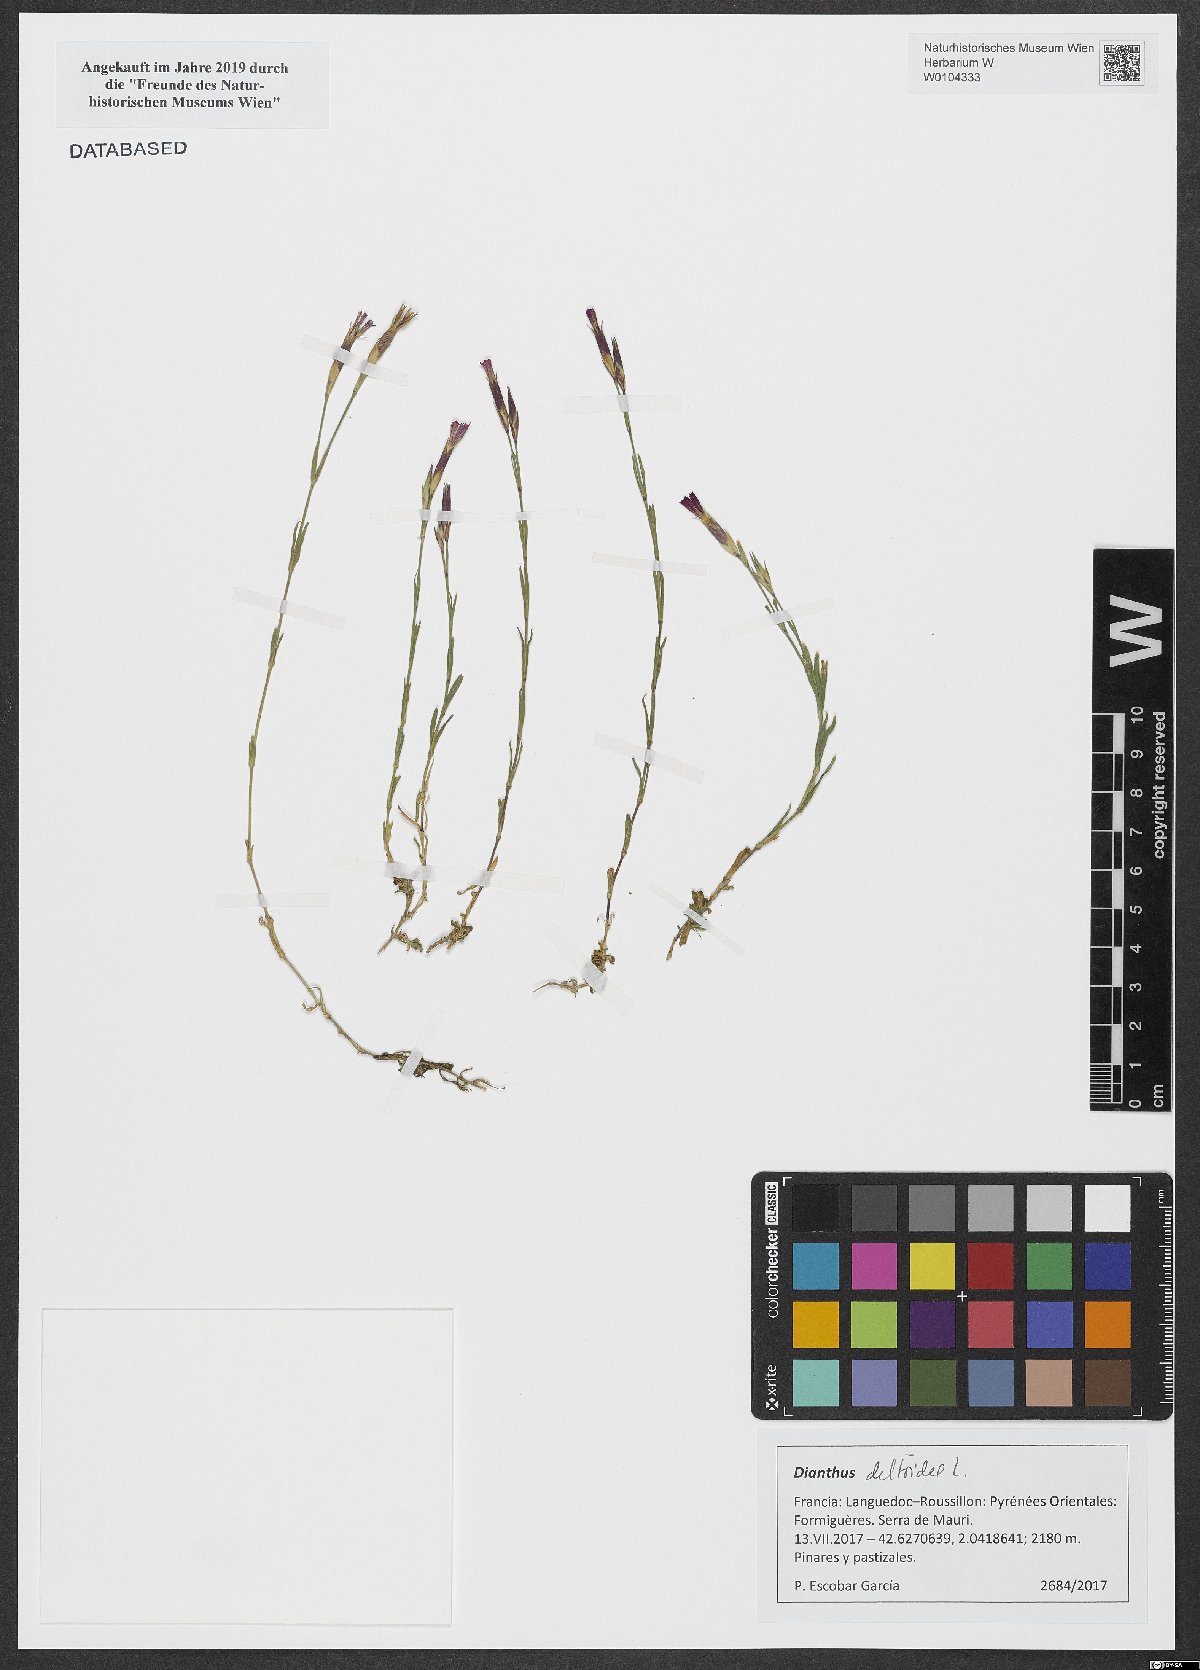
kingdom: Plantae
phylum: Tracheophyta
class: Magnoliopsida
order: Caryophyllales
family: Caryophyllaceae
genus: Dianthus
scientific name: Dianthus deltoides
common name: Maiden pink
